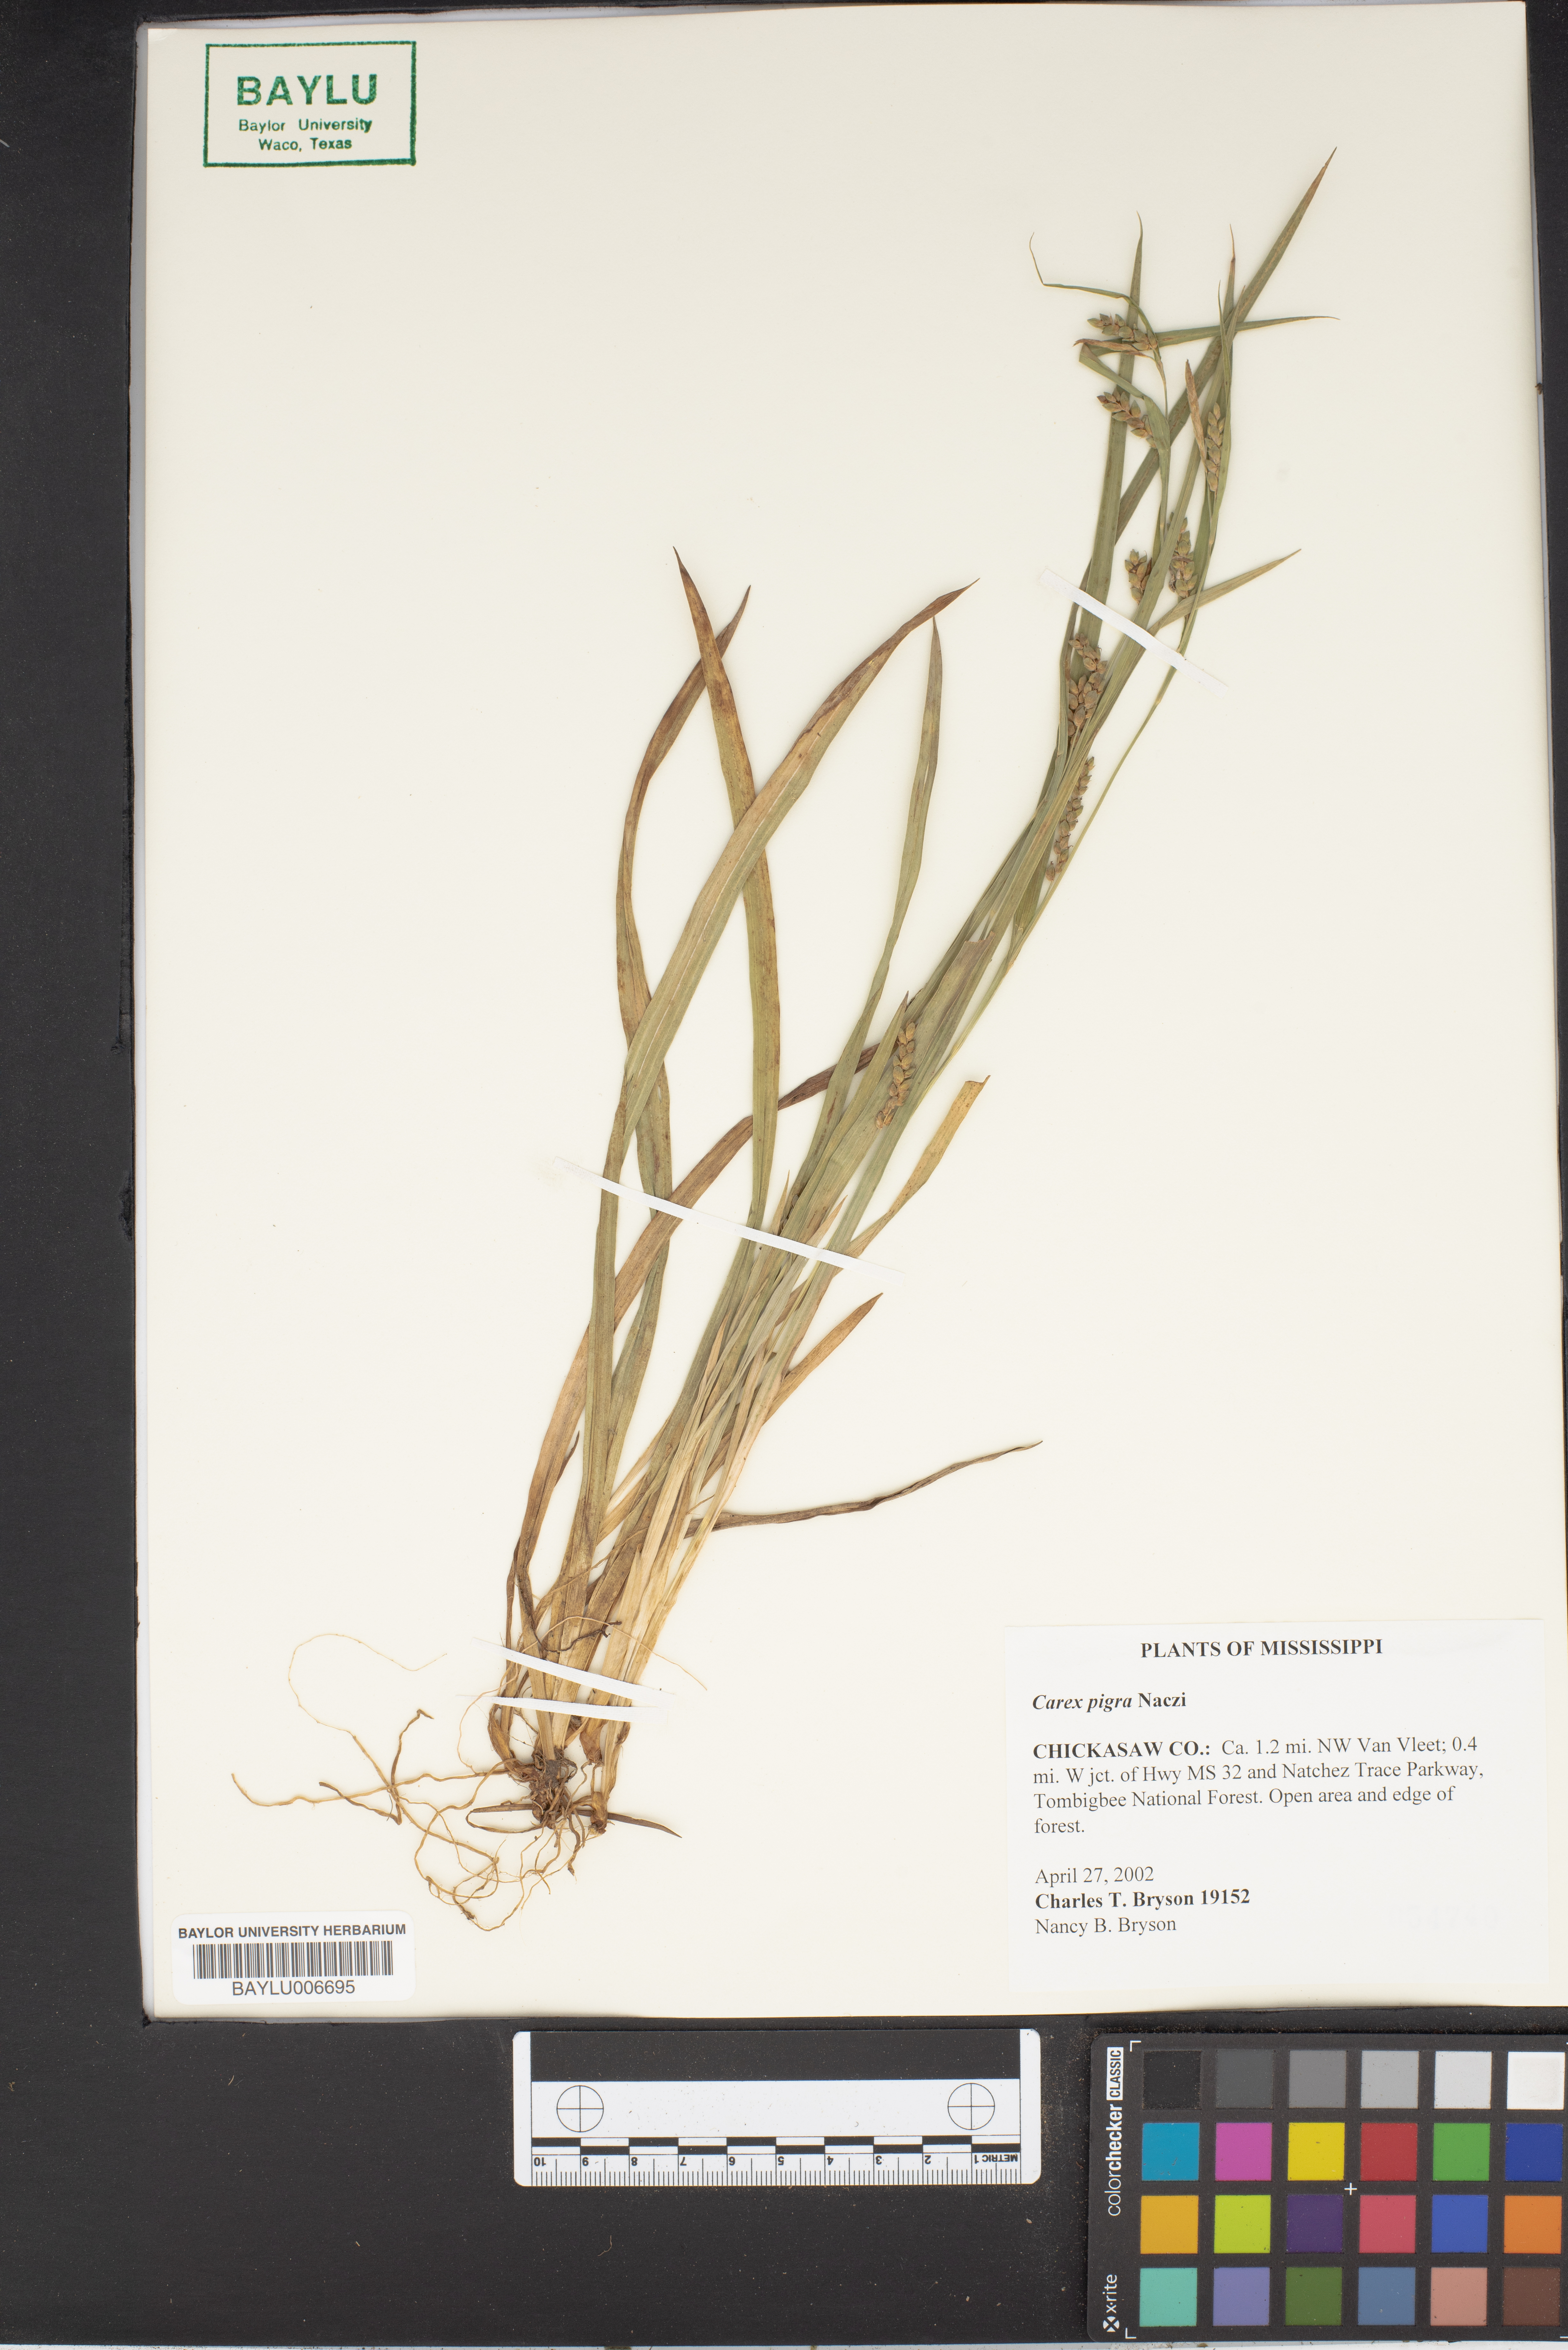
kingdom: Plantae
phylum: Tracheophyta
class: Liliopsida
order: Poales
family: Cyperaceae
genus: Carex
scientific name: Carex pigra
